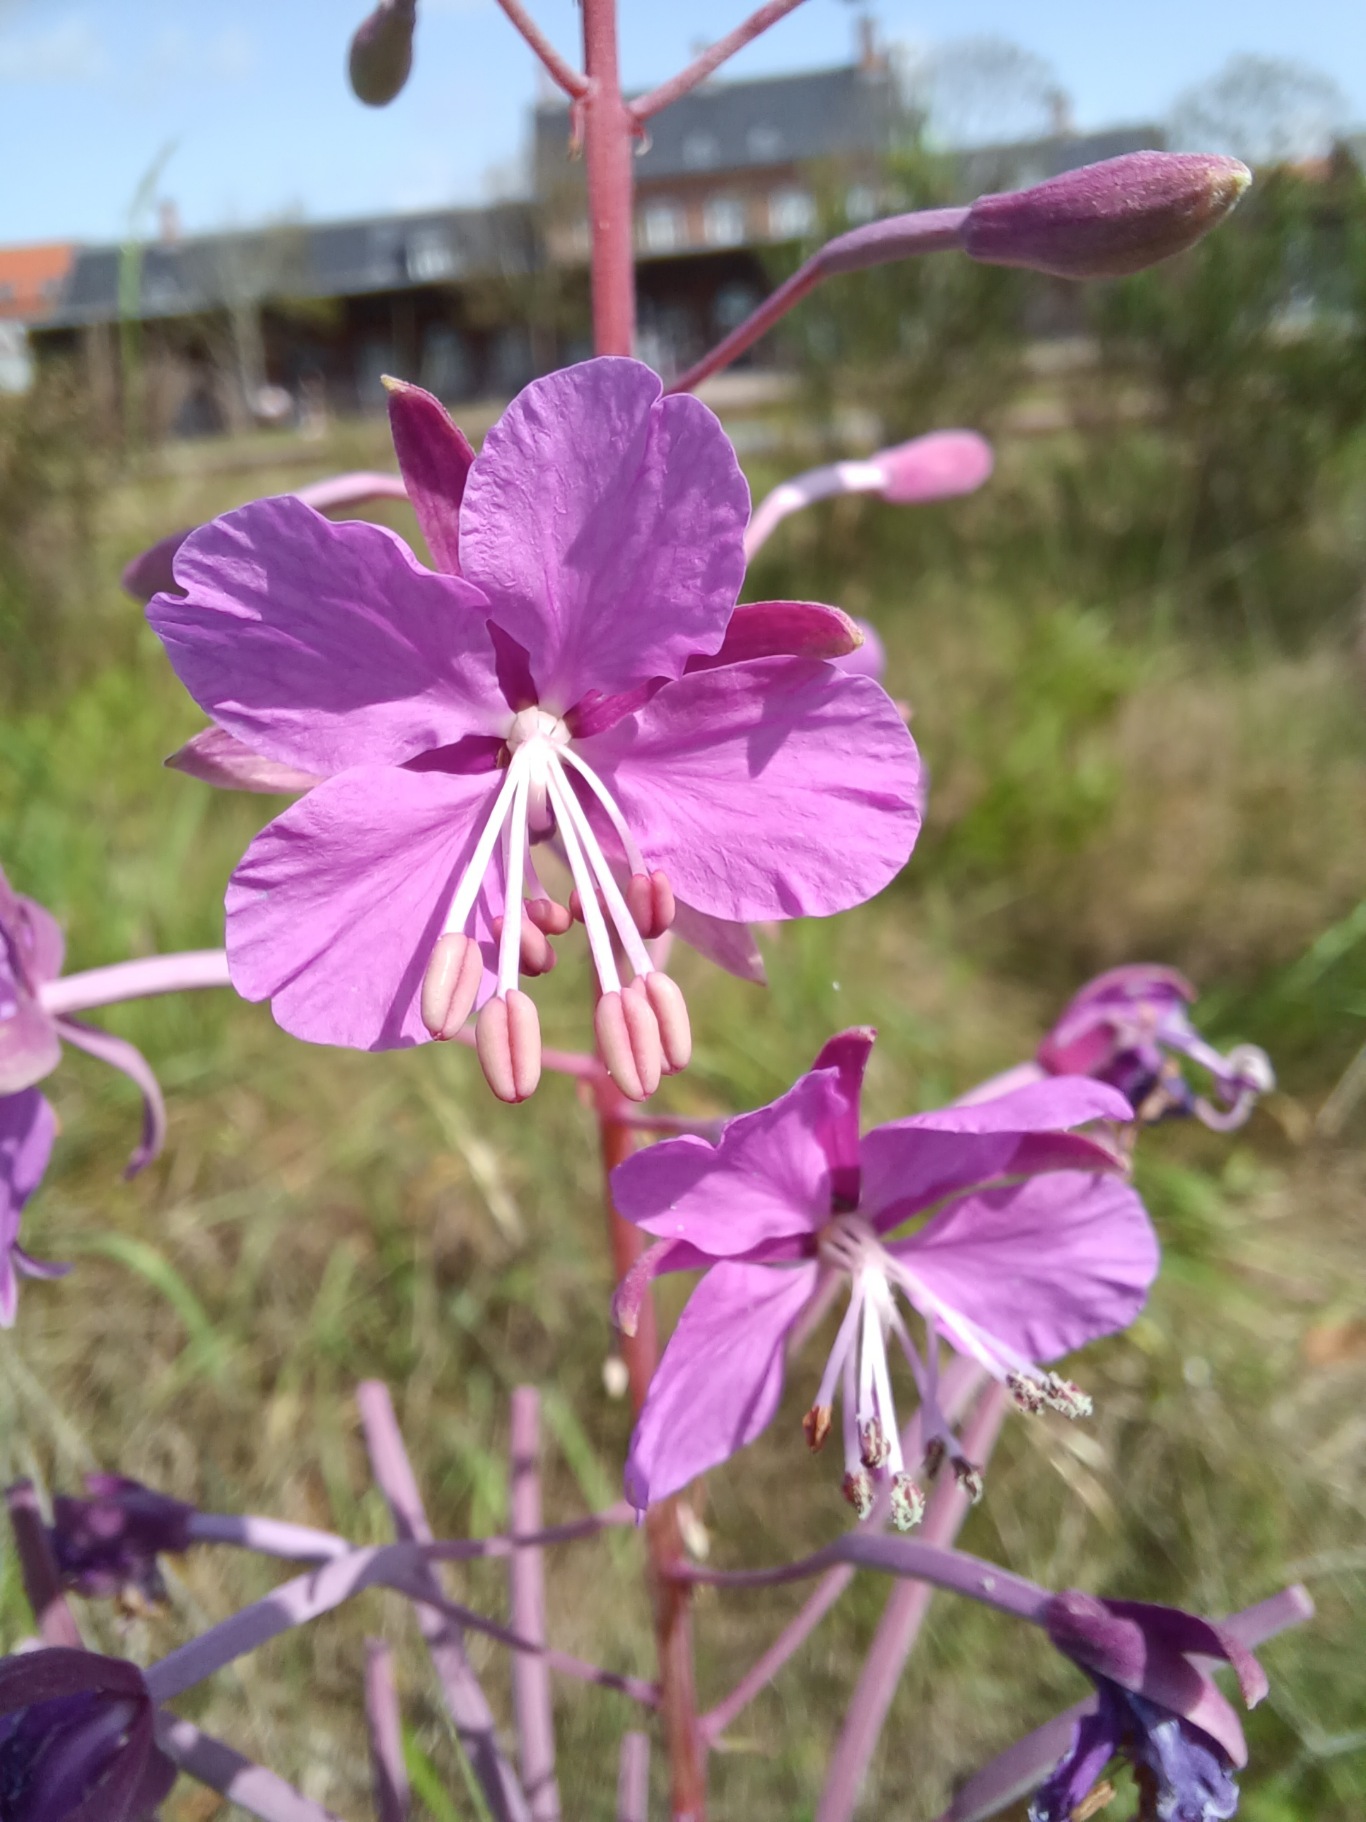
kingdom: Plantae
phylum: Tracheophyta
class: Magnoliopsida
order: Myrtales
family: Onagraceae
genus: Chamaenerion
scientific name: Chamaenerion angustifolium
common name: Gederams
